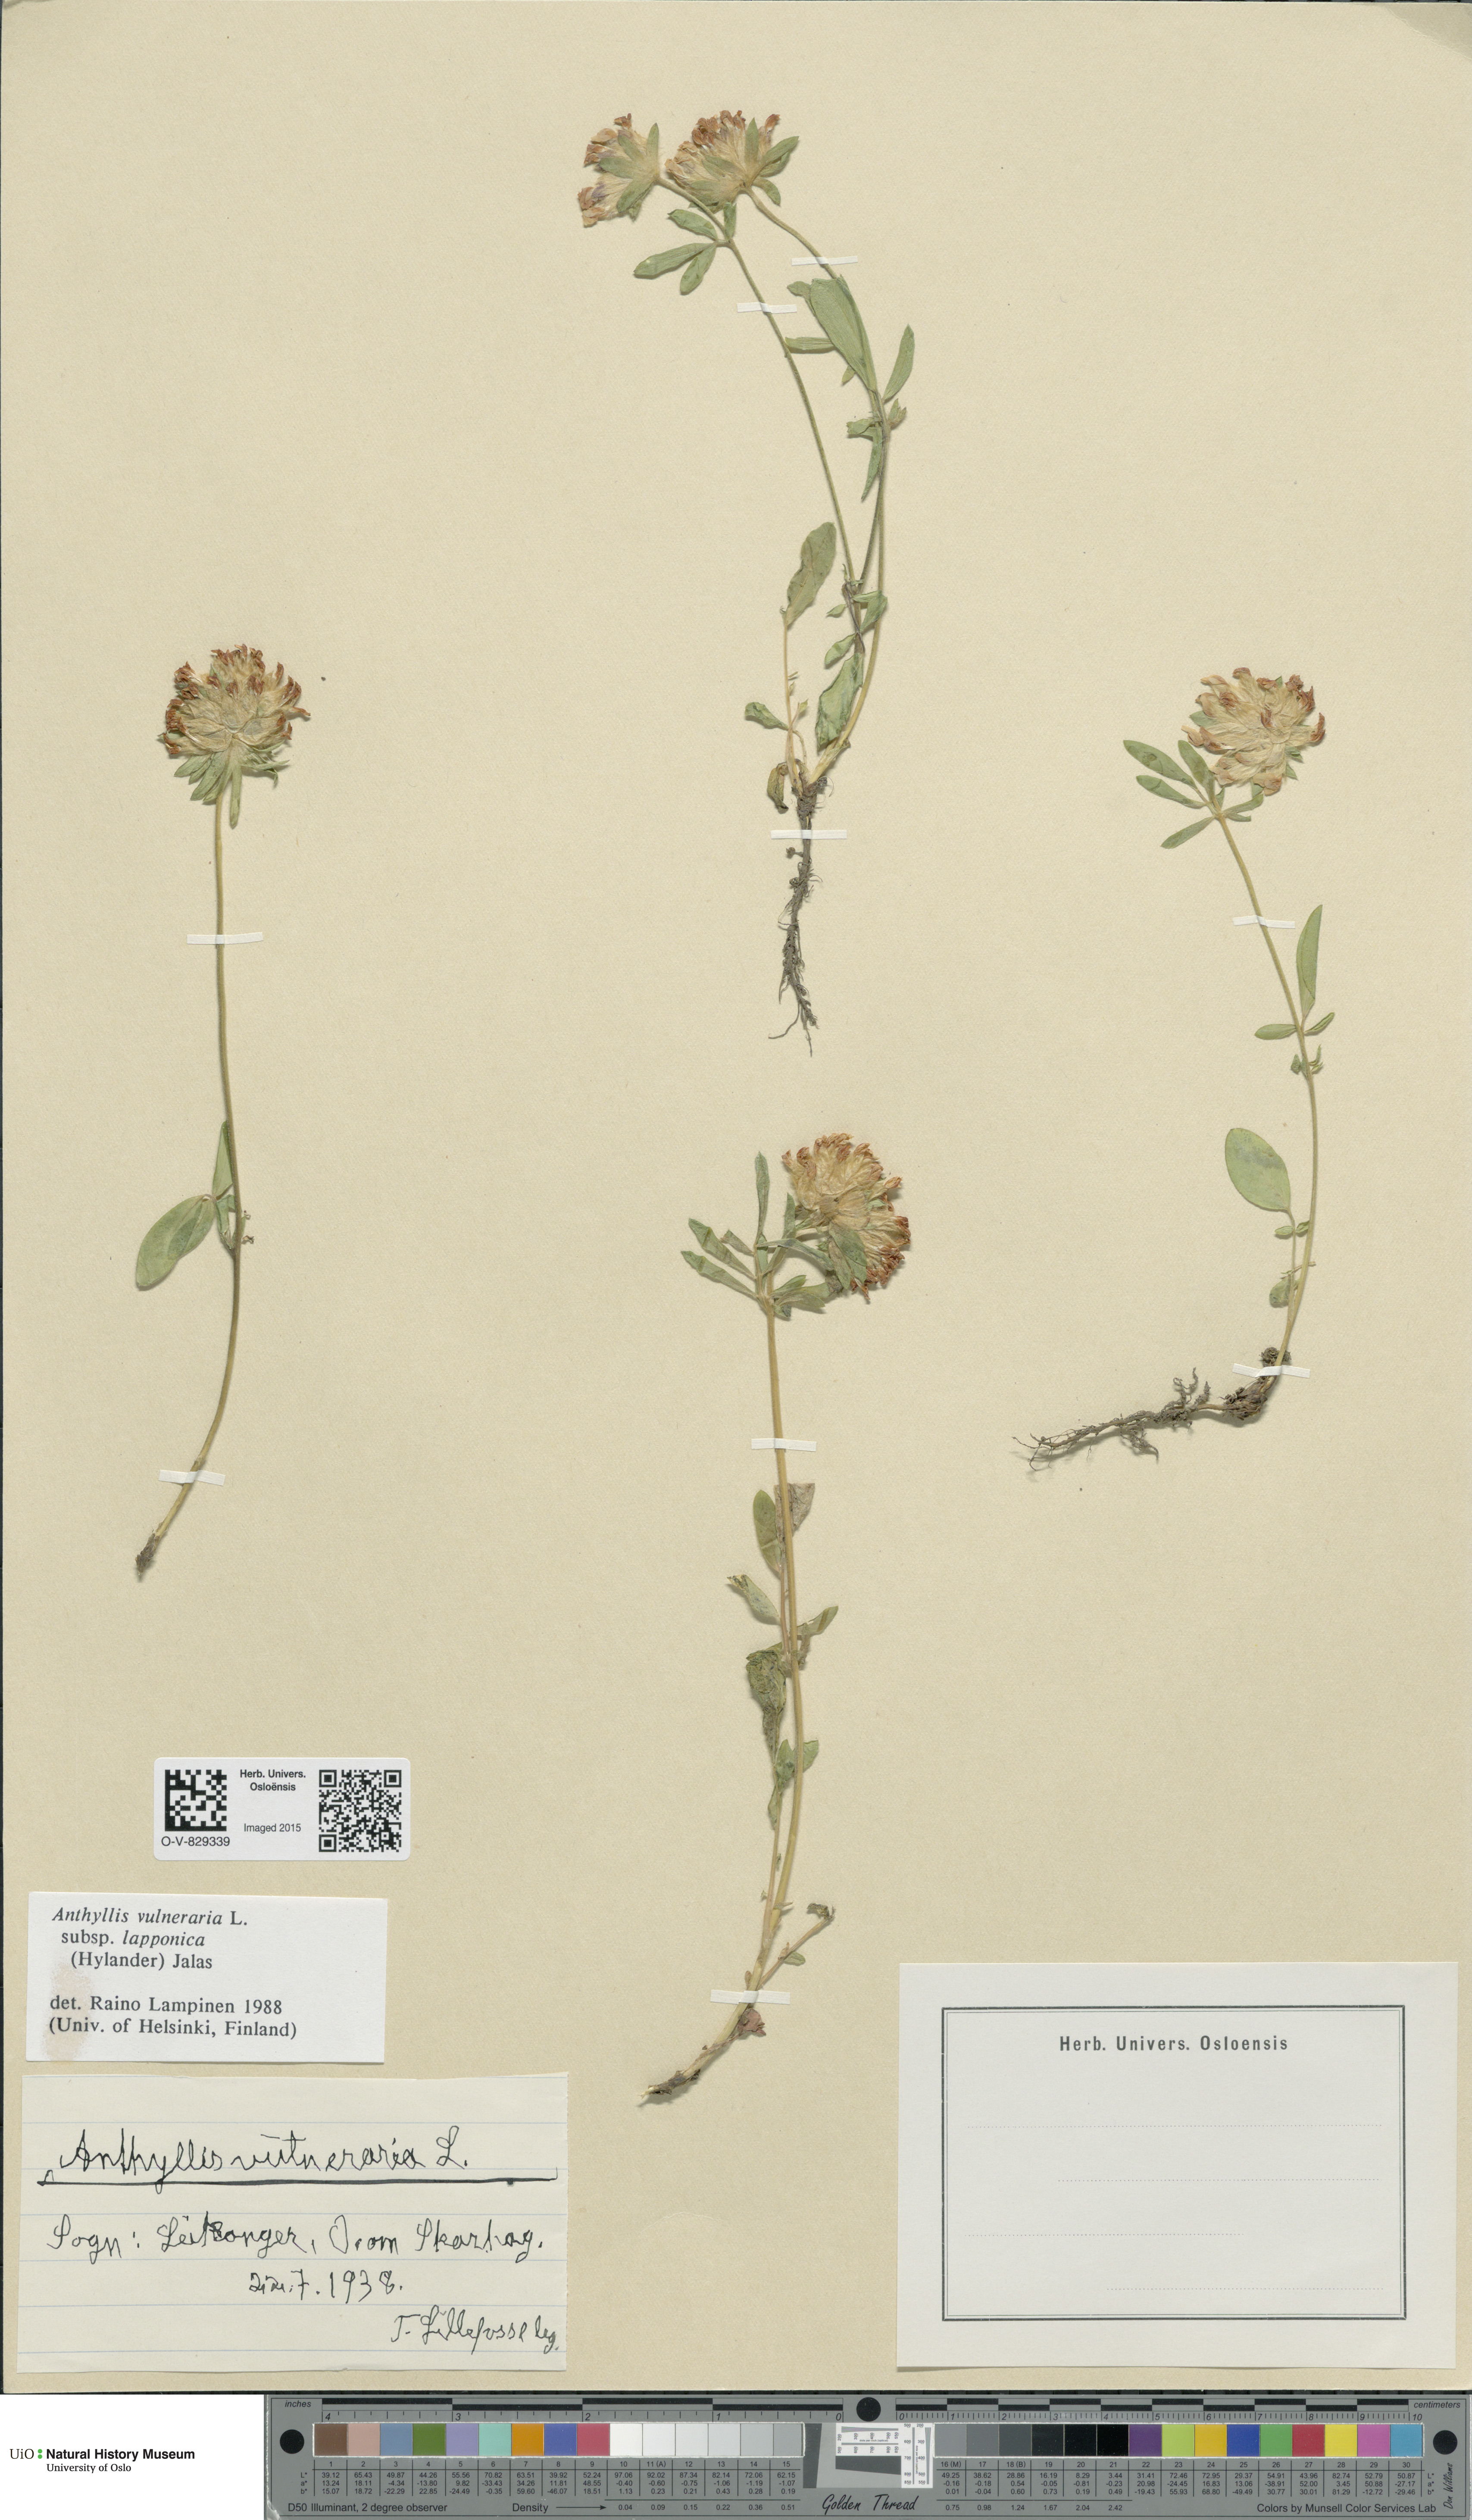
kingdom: Plantae
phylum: Tracheophyta
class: Magnoliopsida
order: Fabales
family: Fabaceae
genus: Anthyllis
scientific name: Anthyllis vulneraria
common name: Kidney vetch
